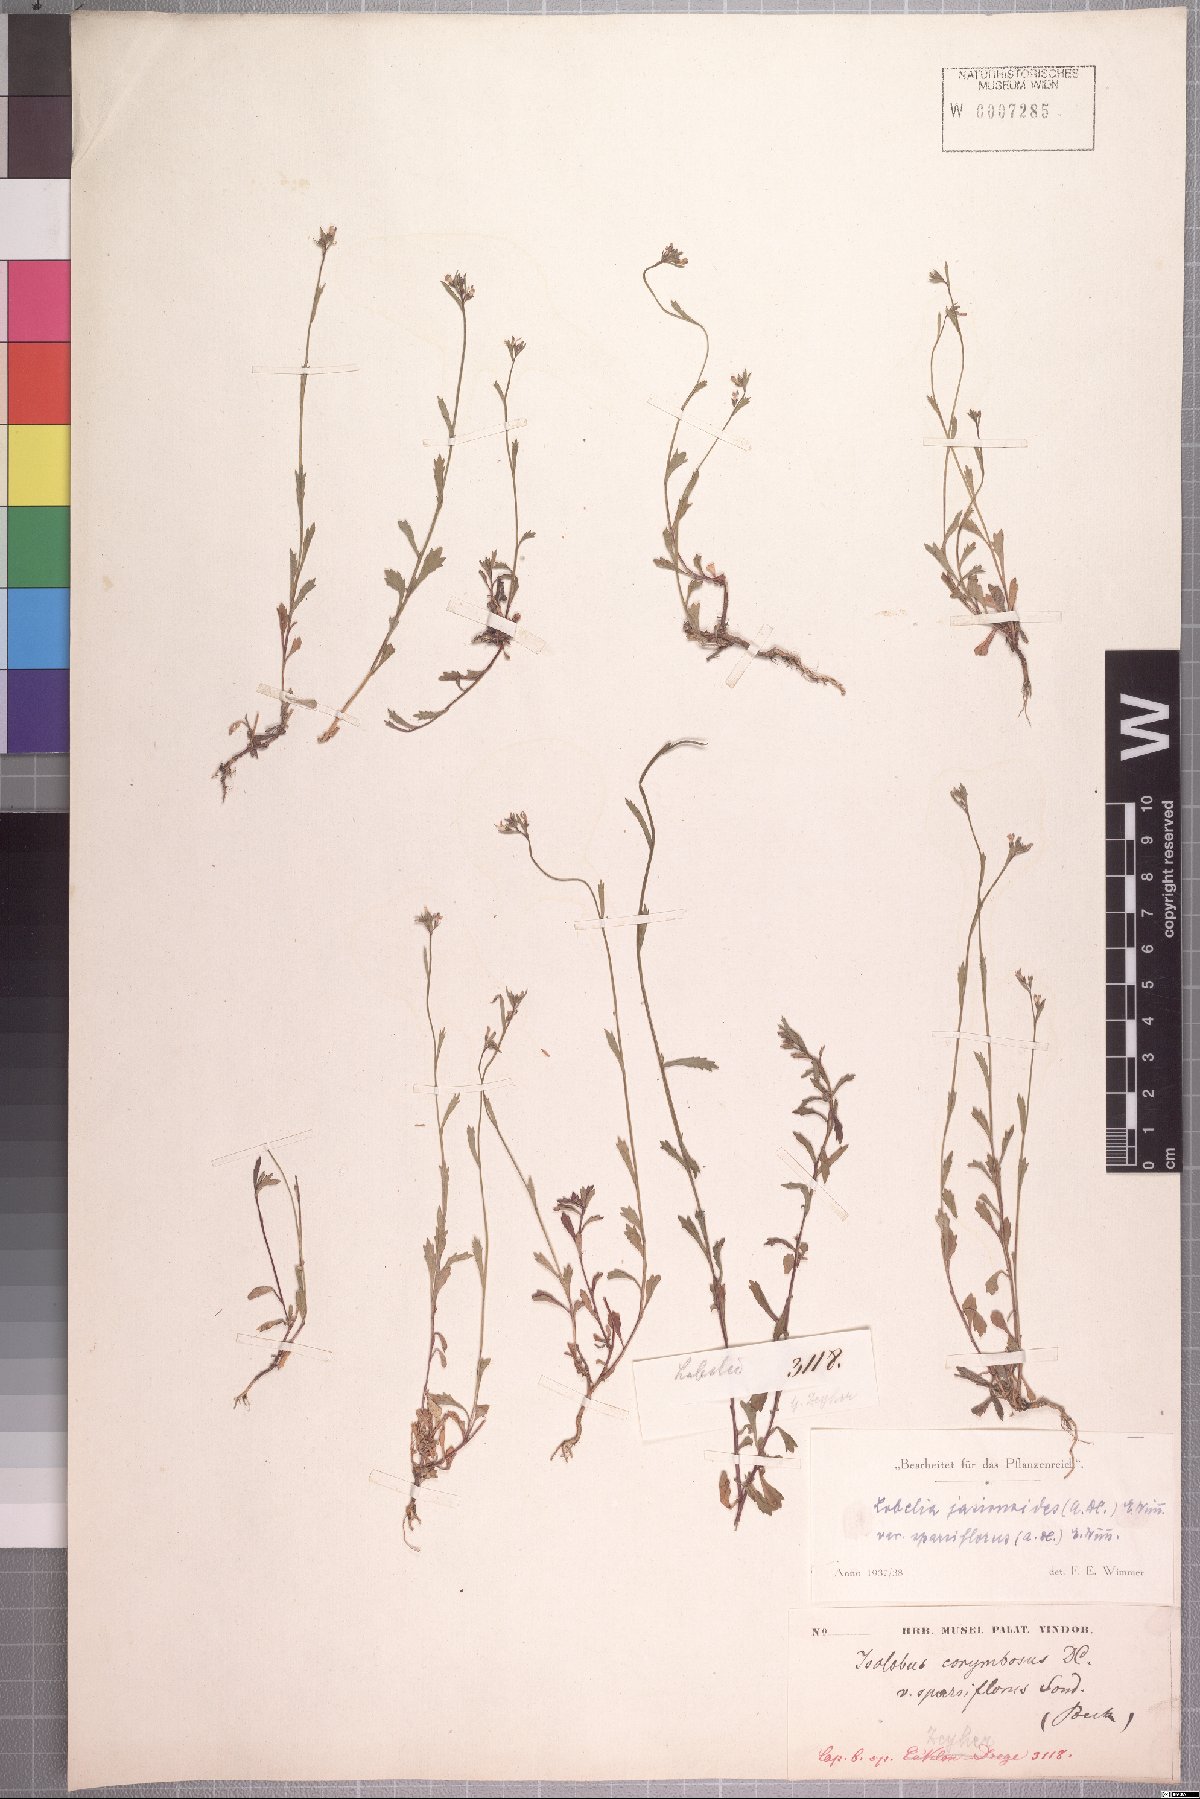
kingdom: Plantae
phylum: Tracheophyta
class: Magnoliopsida
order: Asterales
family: Campanulaceae
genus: Lobelia
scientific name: Lobelia jasionoides
